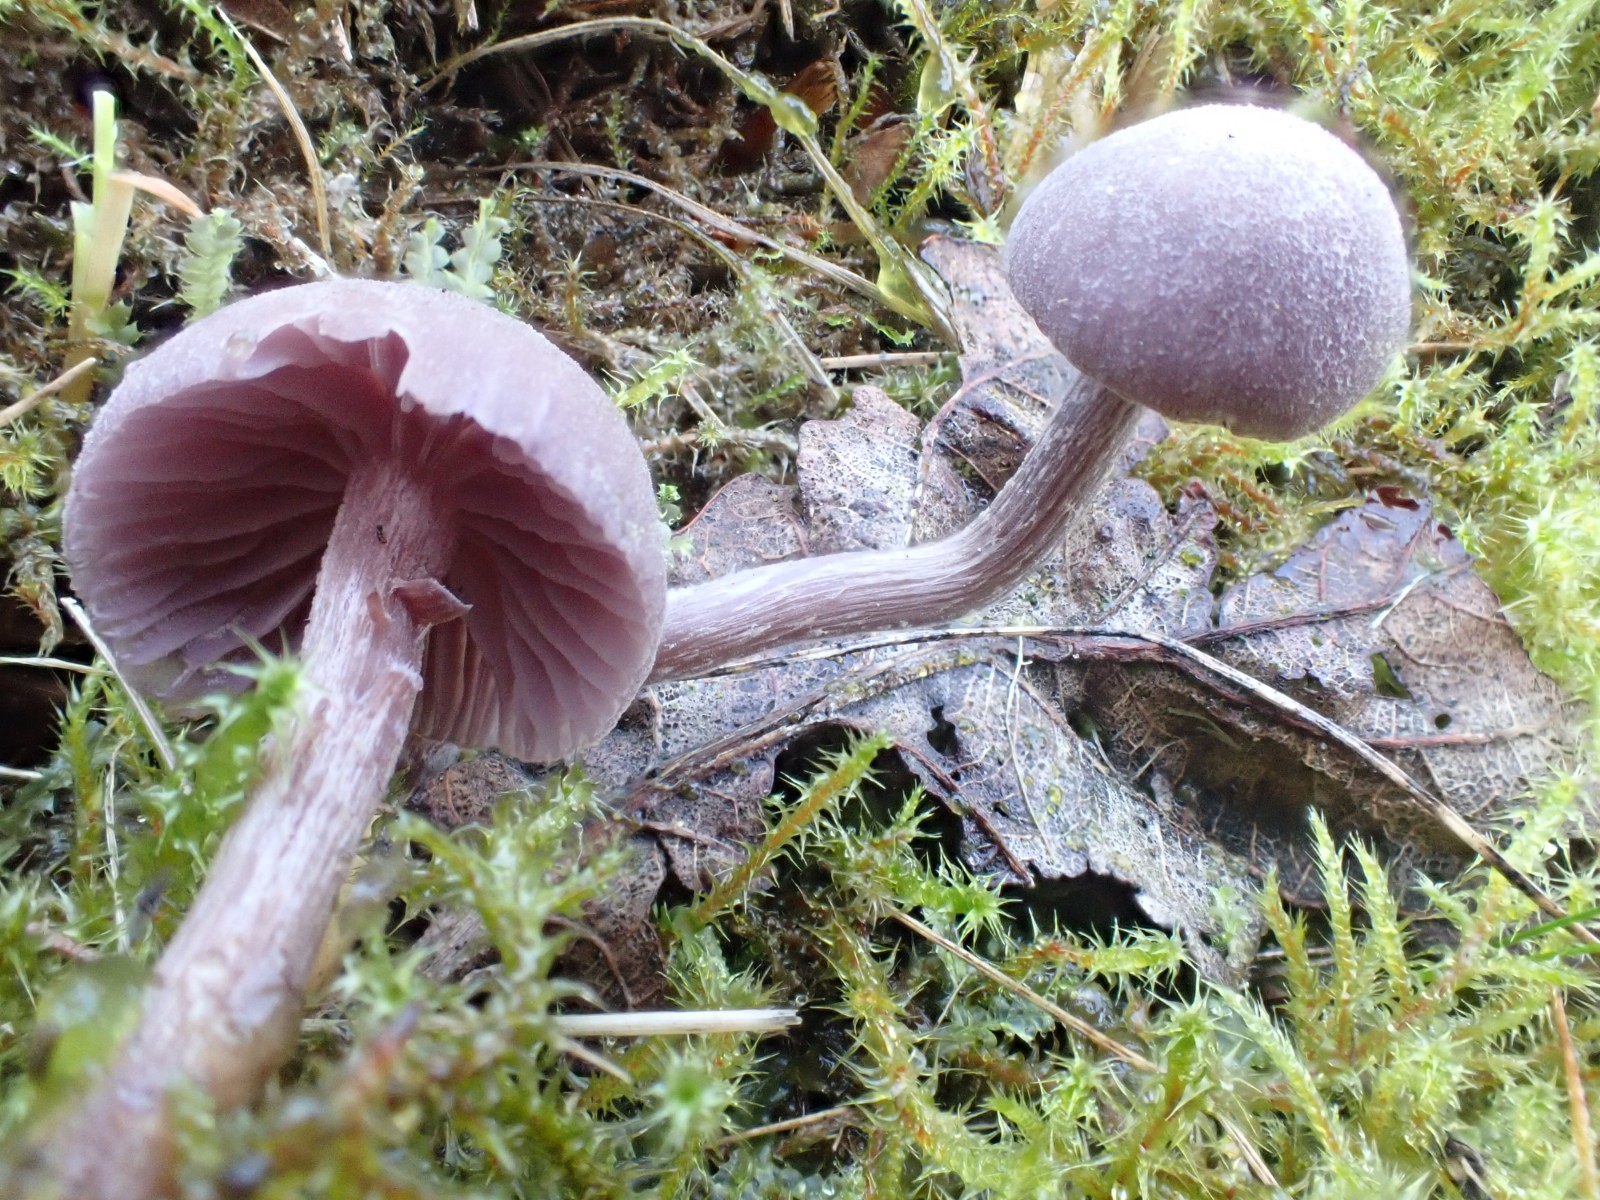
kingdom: Fungi
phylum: Basidiomycota
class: Agaricomycetes
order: Agaricales
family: Hydnangiaceae
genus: Laccaria
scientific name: Laccaria amethystina
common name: violet ametysthat
